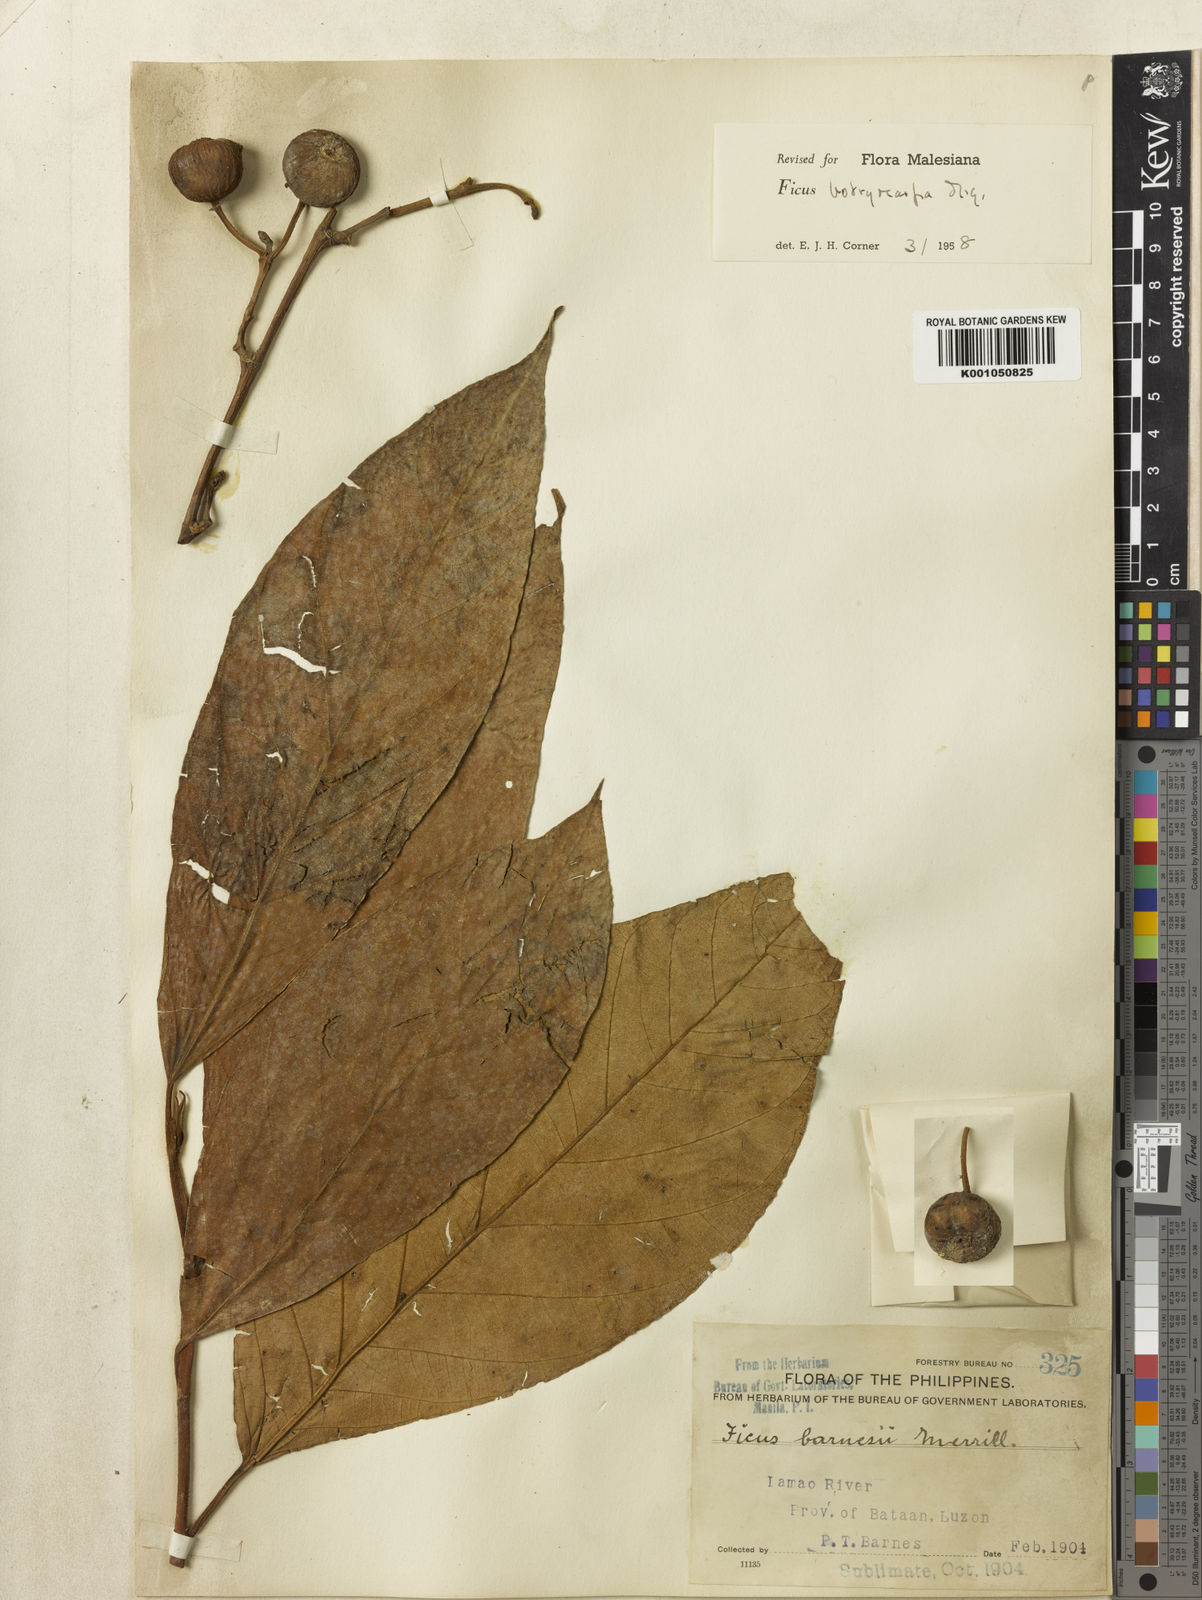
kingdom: Plantae
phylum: Tracheophyta
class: Magnoliopsida
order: Rosales
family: Moraceae
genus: Ficus
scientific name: Ficus botryocarpa
